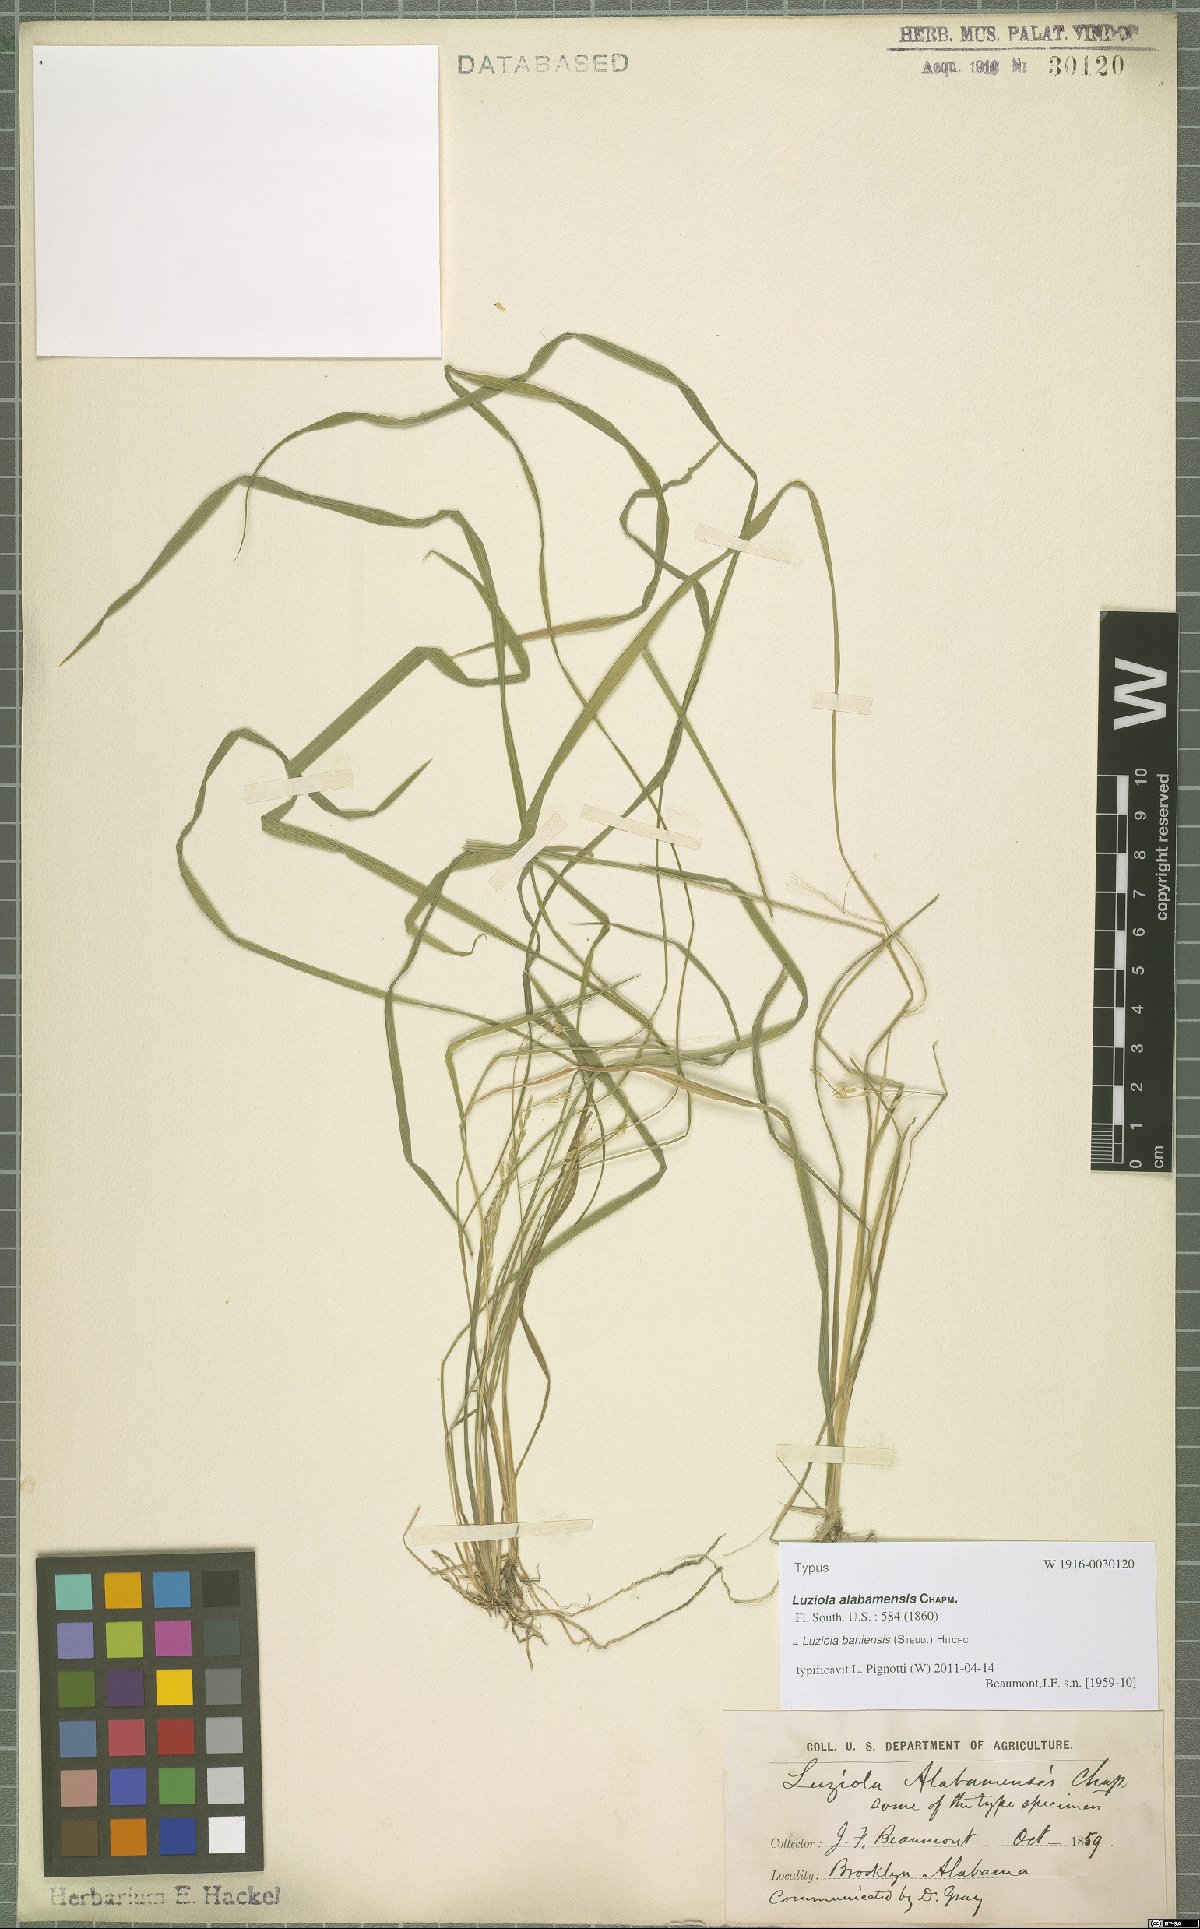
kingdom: Plantae
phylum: Tracheophyta
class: Liliopsida
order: Poales
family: Poaceae
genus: Luziola
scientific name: Luziola bahiensis
